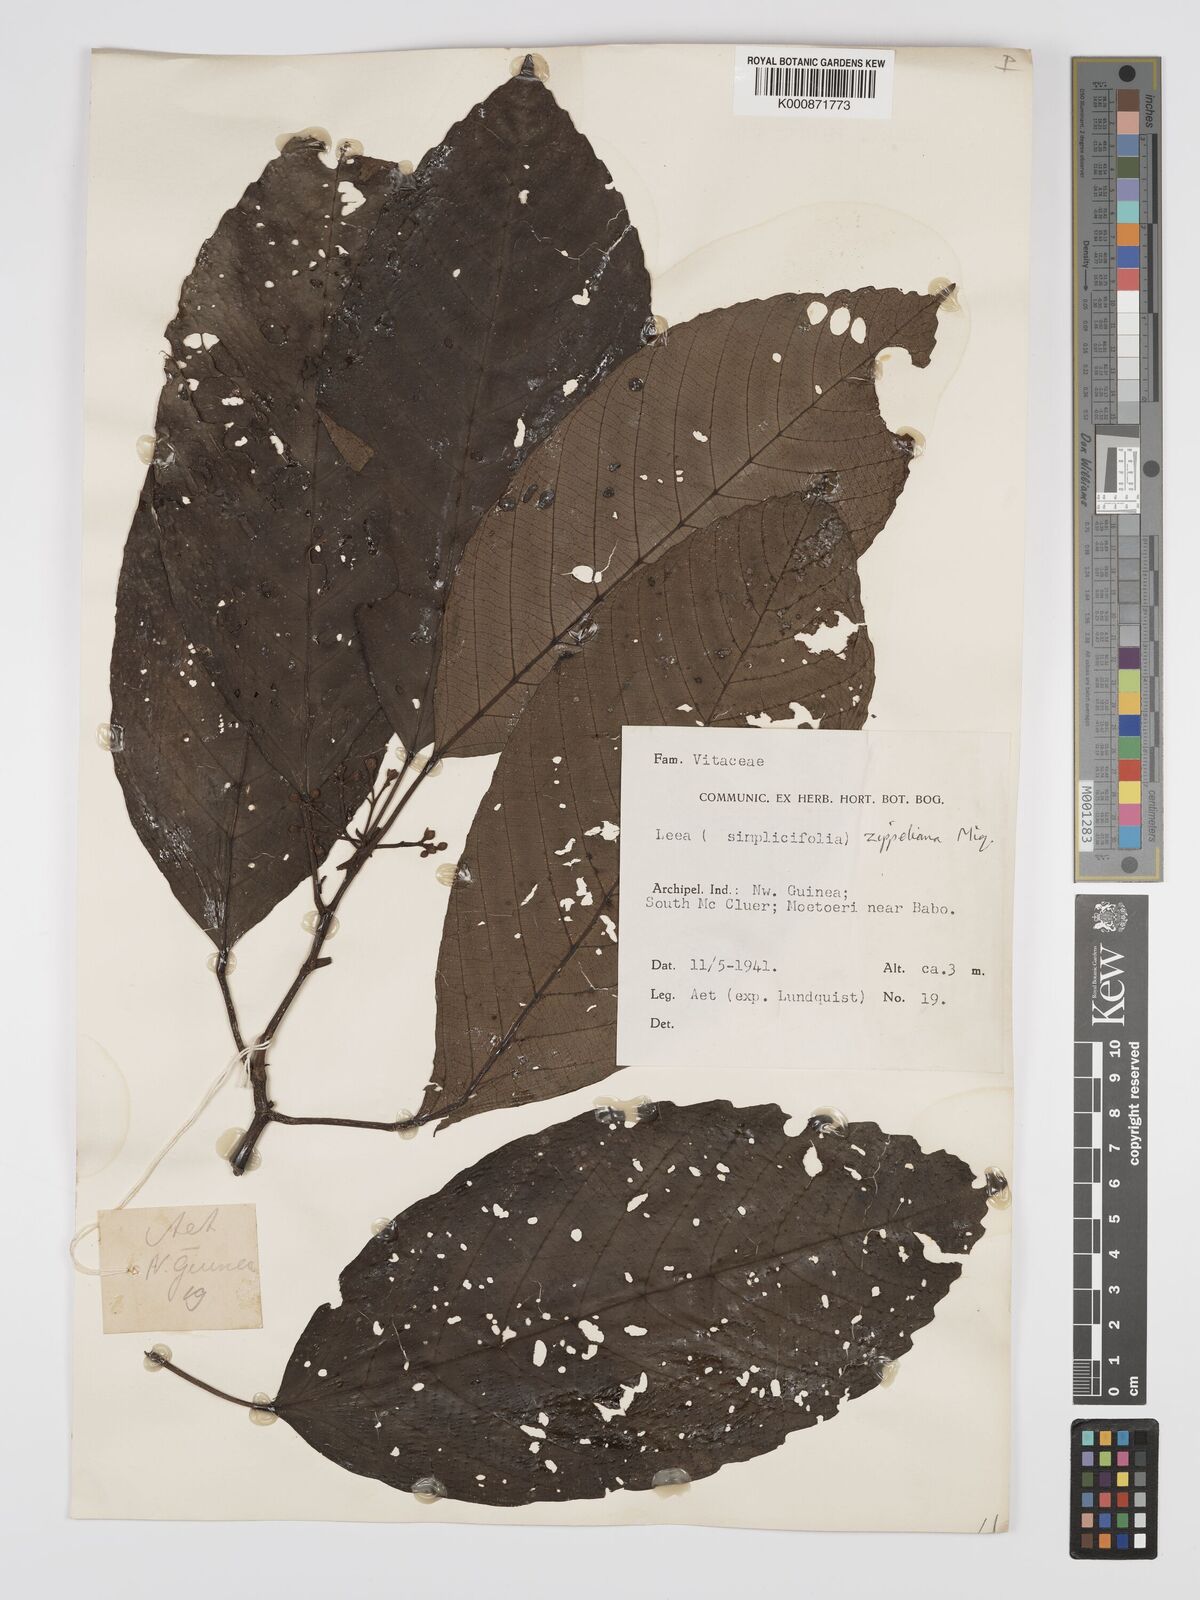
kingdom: Plantae
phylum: Tracheophyta
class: Magnoliopsida
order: Vitales
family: Vitaceae
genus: Leea
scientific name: Leea zippeliana
